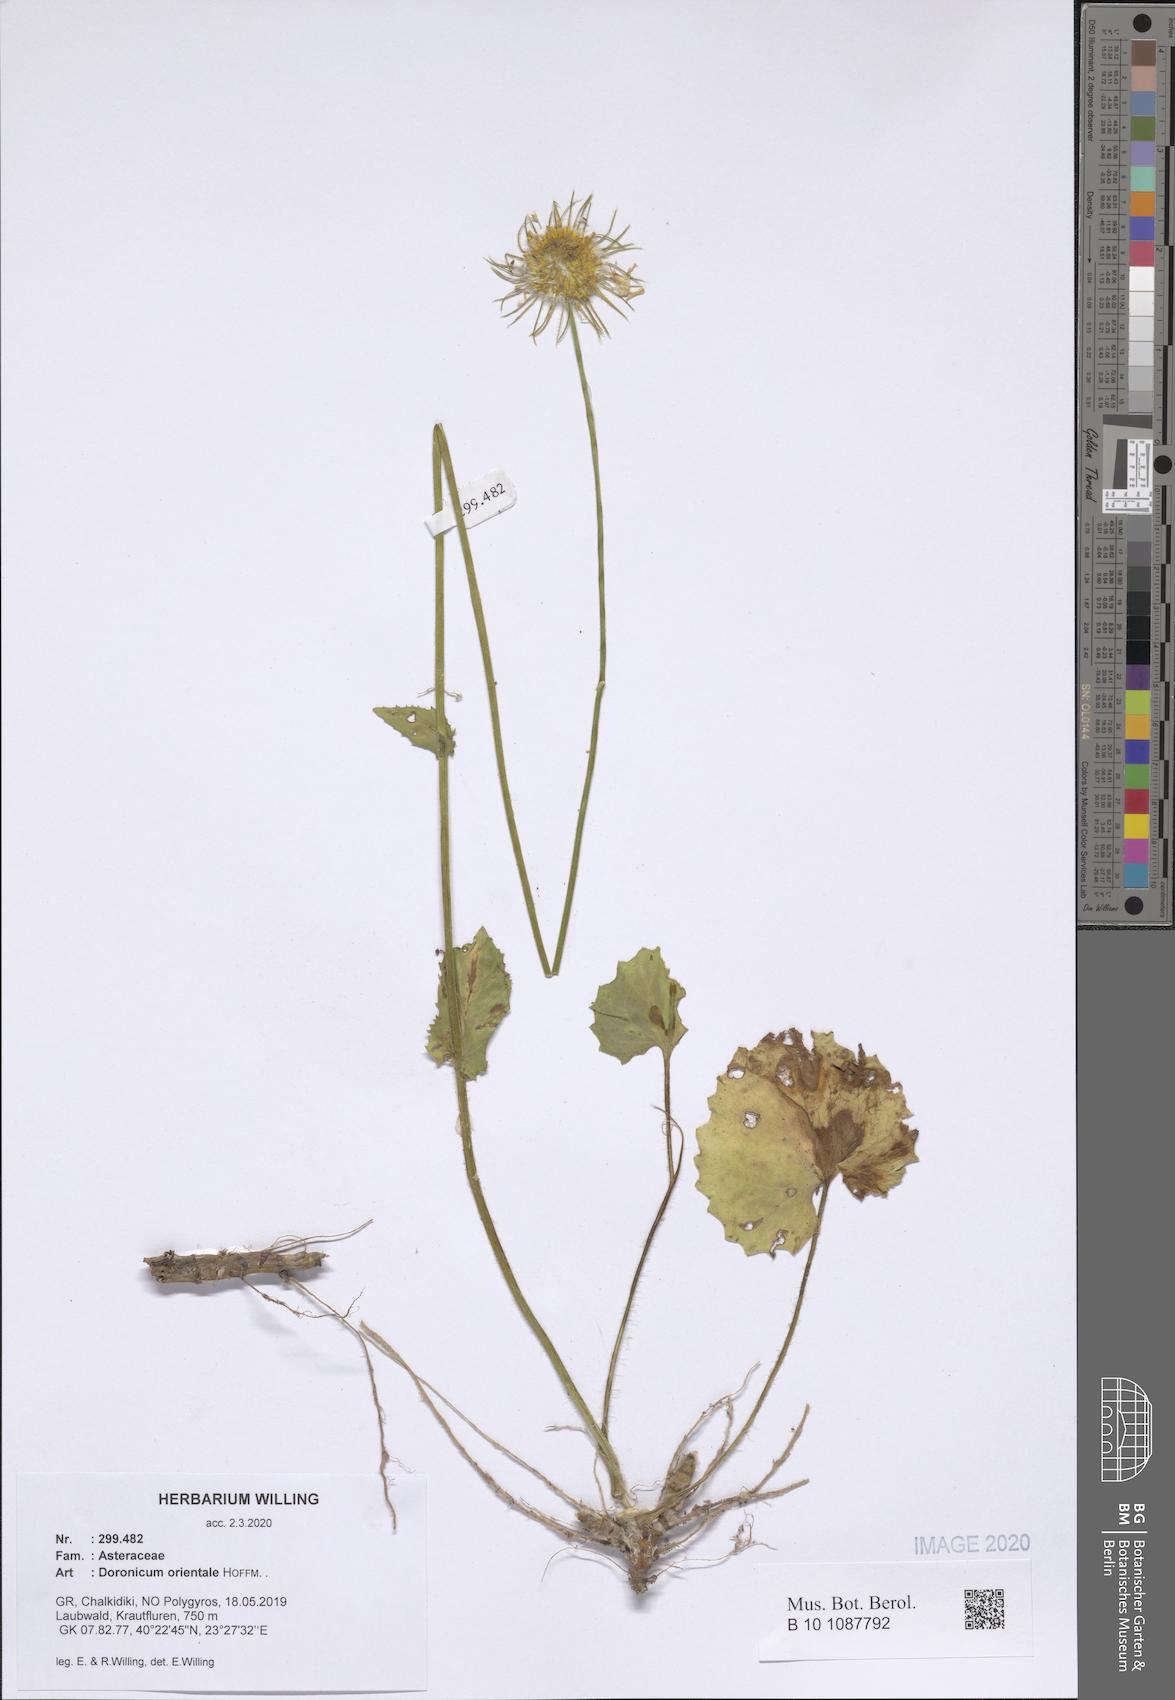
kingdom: Plantae
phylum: Tracheophyta
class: Magnoliopsida
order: Asterales
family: Asteraceae
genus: Doronicum
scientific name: Doronicum orientale
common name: Oriental leopard's-bane
